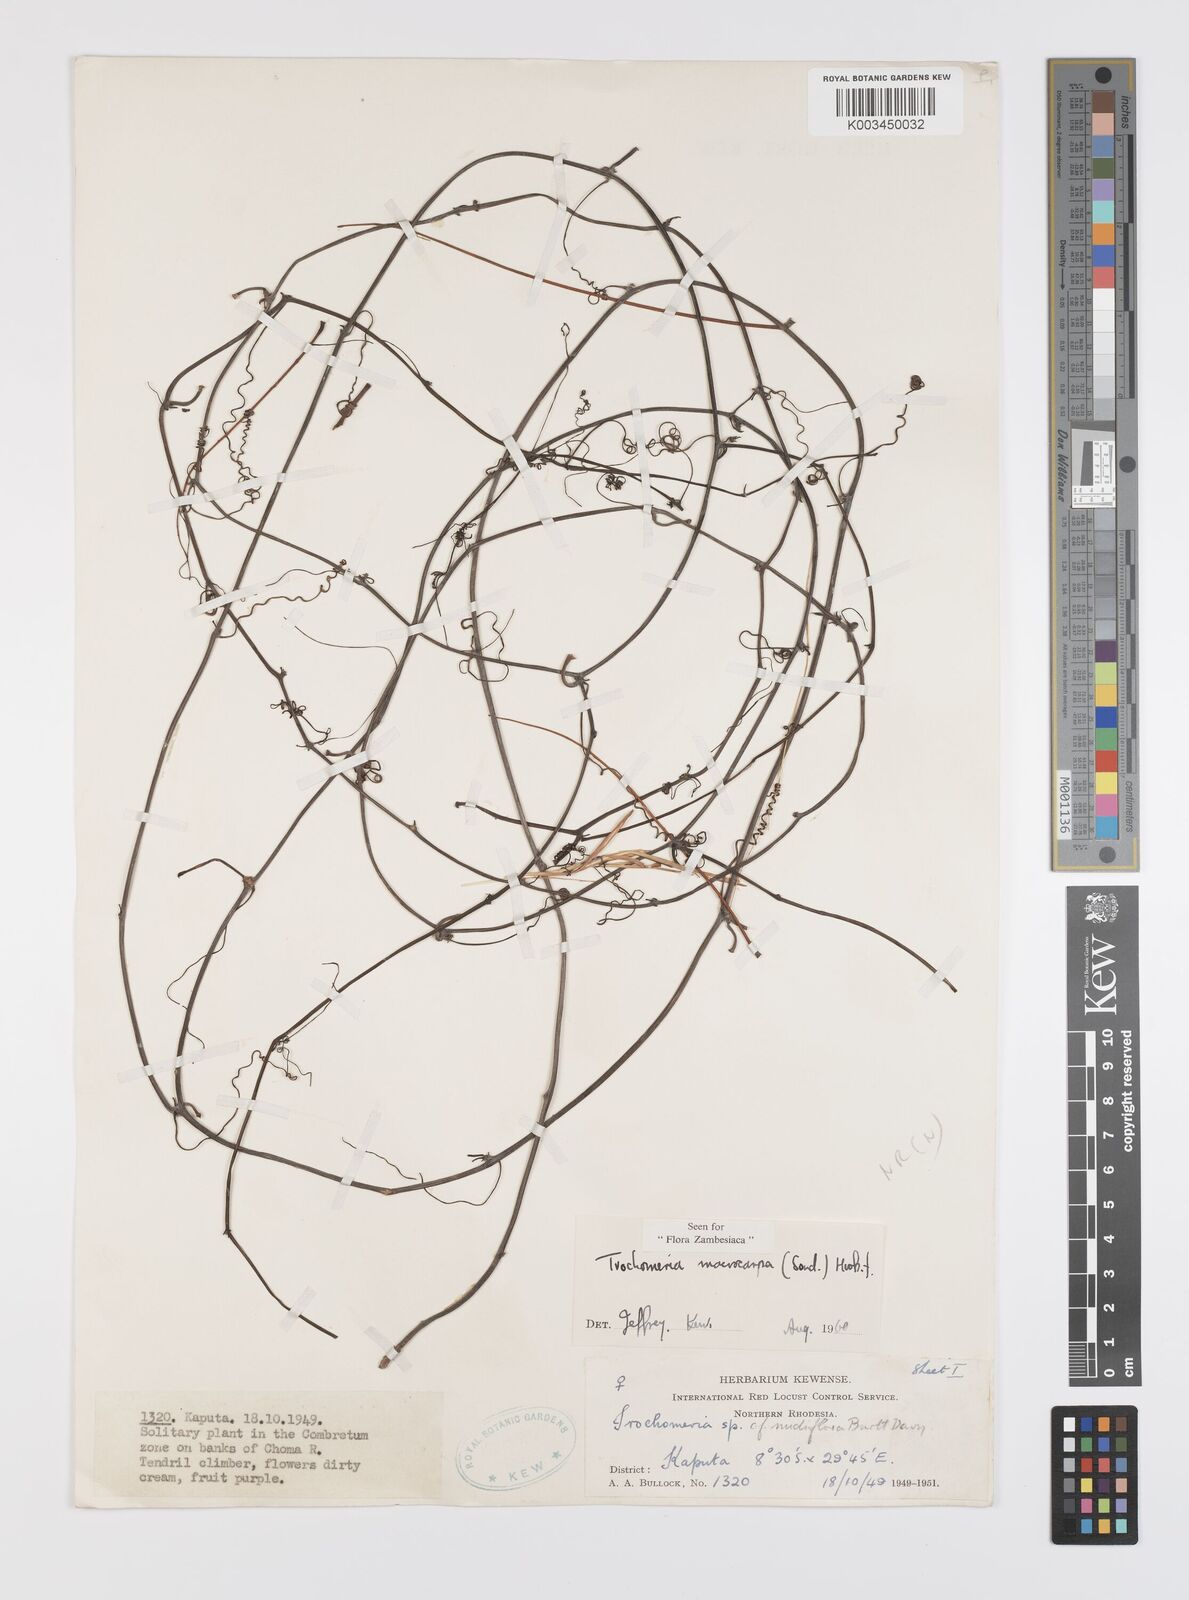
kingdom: Plantae
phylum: Tracheophyta
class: Magnoliopsida
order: Cucurbitales
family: Cucurbitaceae
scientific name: Cucurbitaceae
